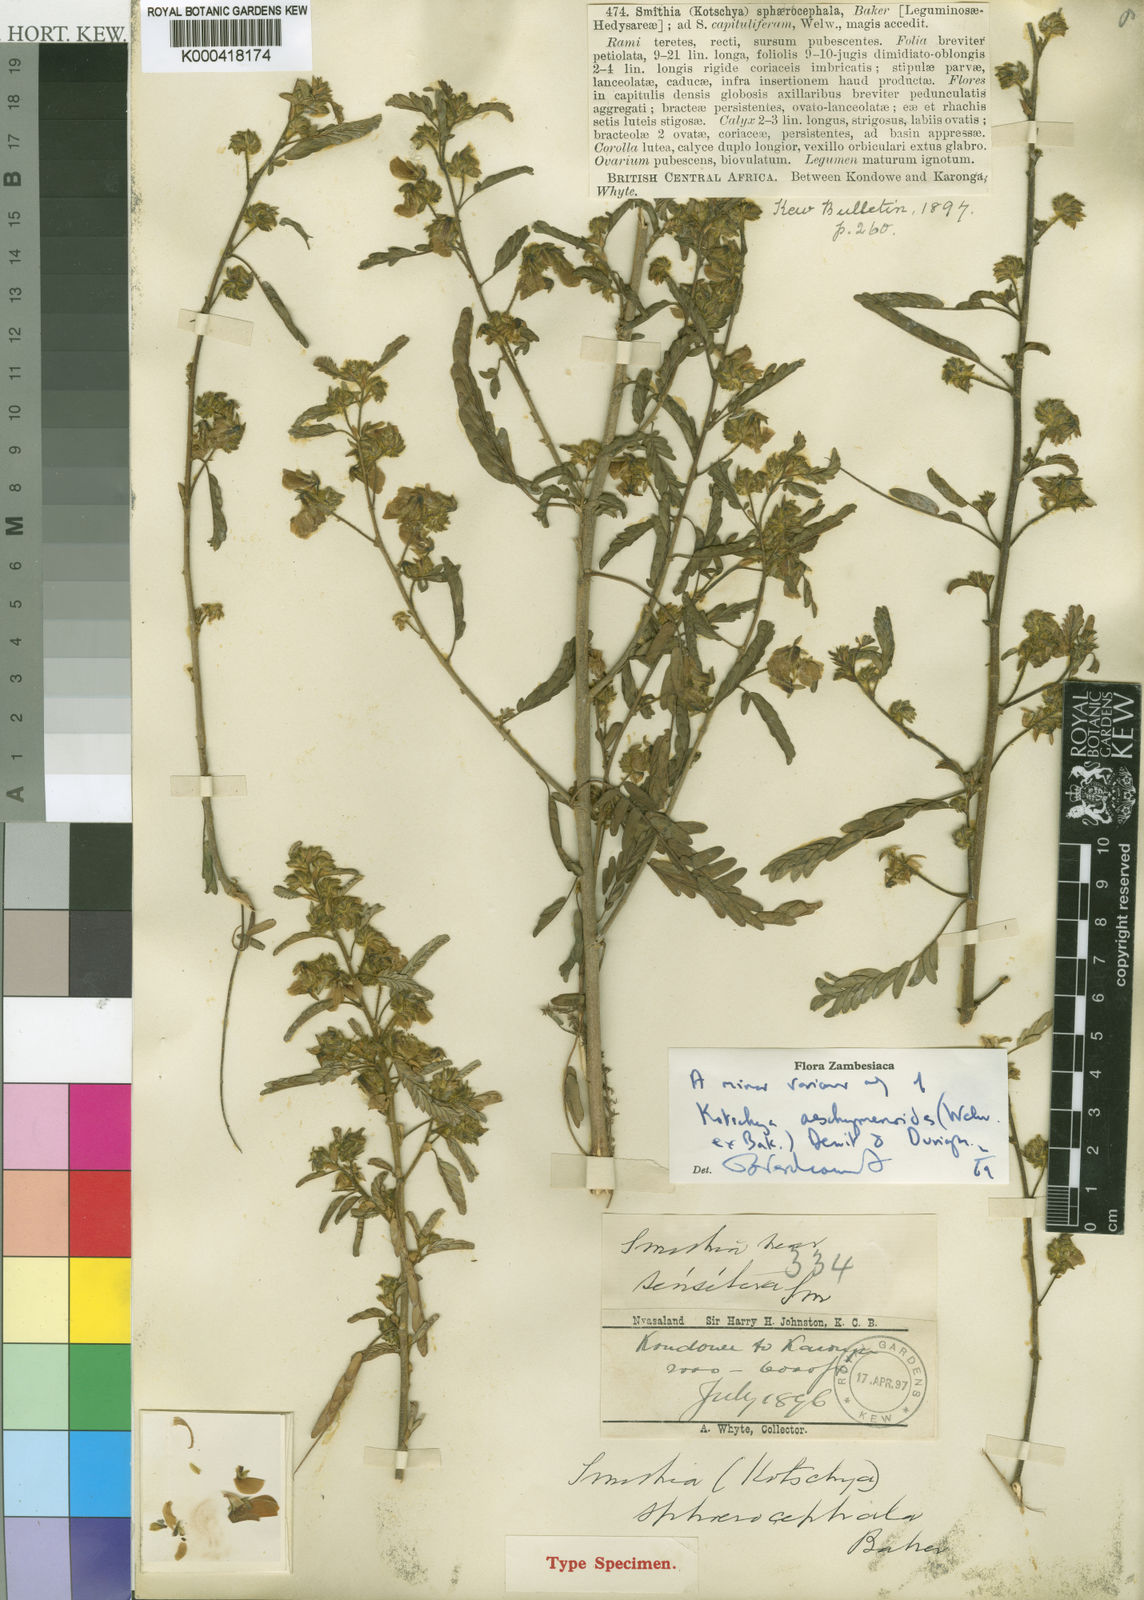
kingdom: Plantae
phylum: Tracheophyta
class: Magnoliopsida
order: Fabales
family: Fabaceae
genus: Kotschya
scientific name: Kotschya aeschynomenoides
